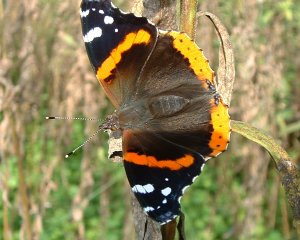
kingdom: Animalia
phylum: Arthropoda
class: Insecta
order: Lepidoptera
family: Nymphalidae
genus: Vanessa
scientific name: Vanessa atalanta
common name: Red Admiral
